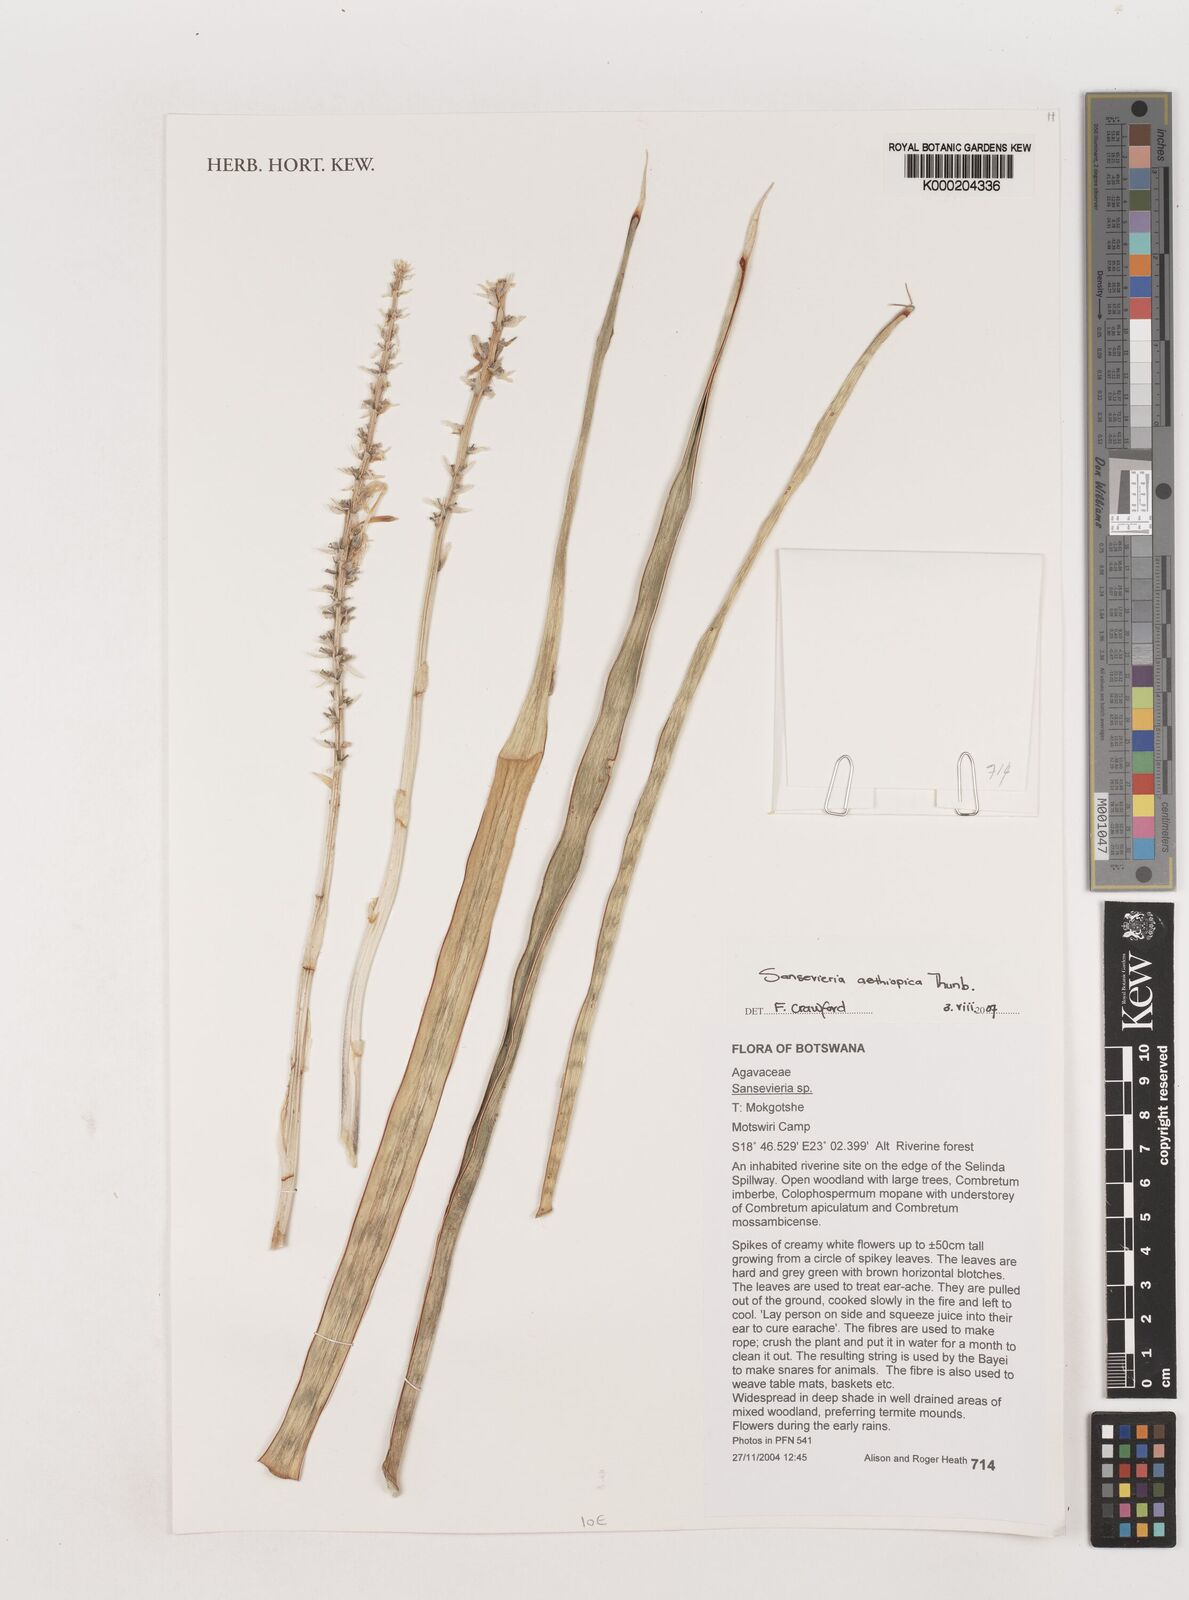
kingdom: Plantae
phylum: Tracheophyta
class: Liliopsida
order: Asparagales
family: Asparagaceae
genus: Dracaena
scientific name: Dracaena aethiopica
